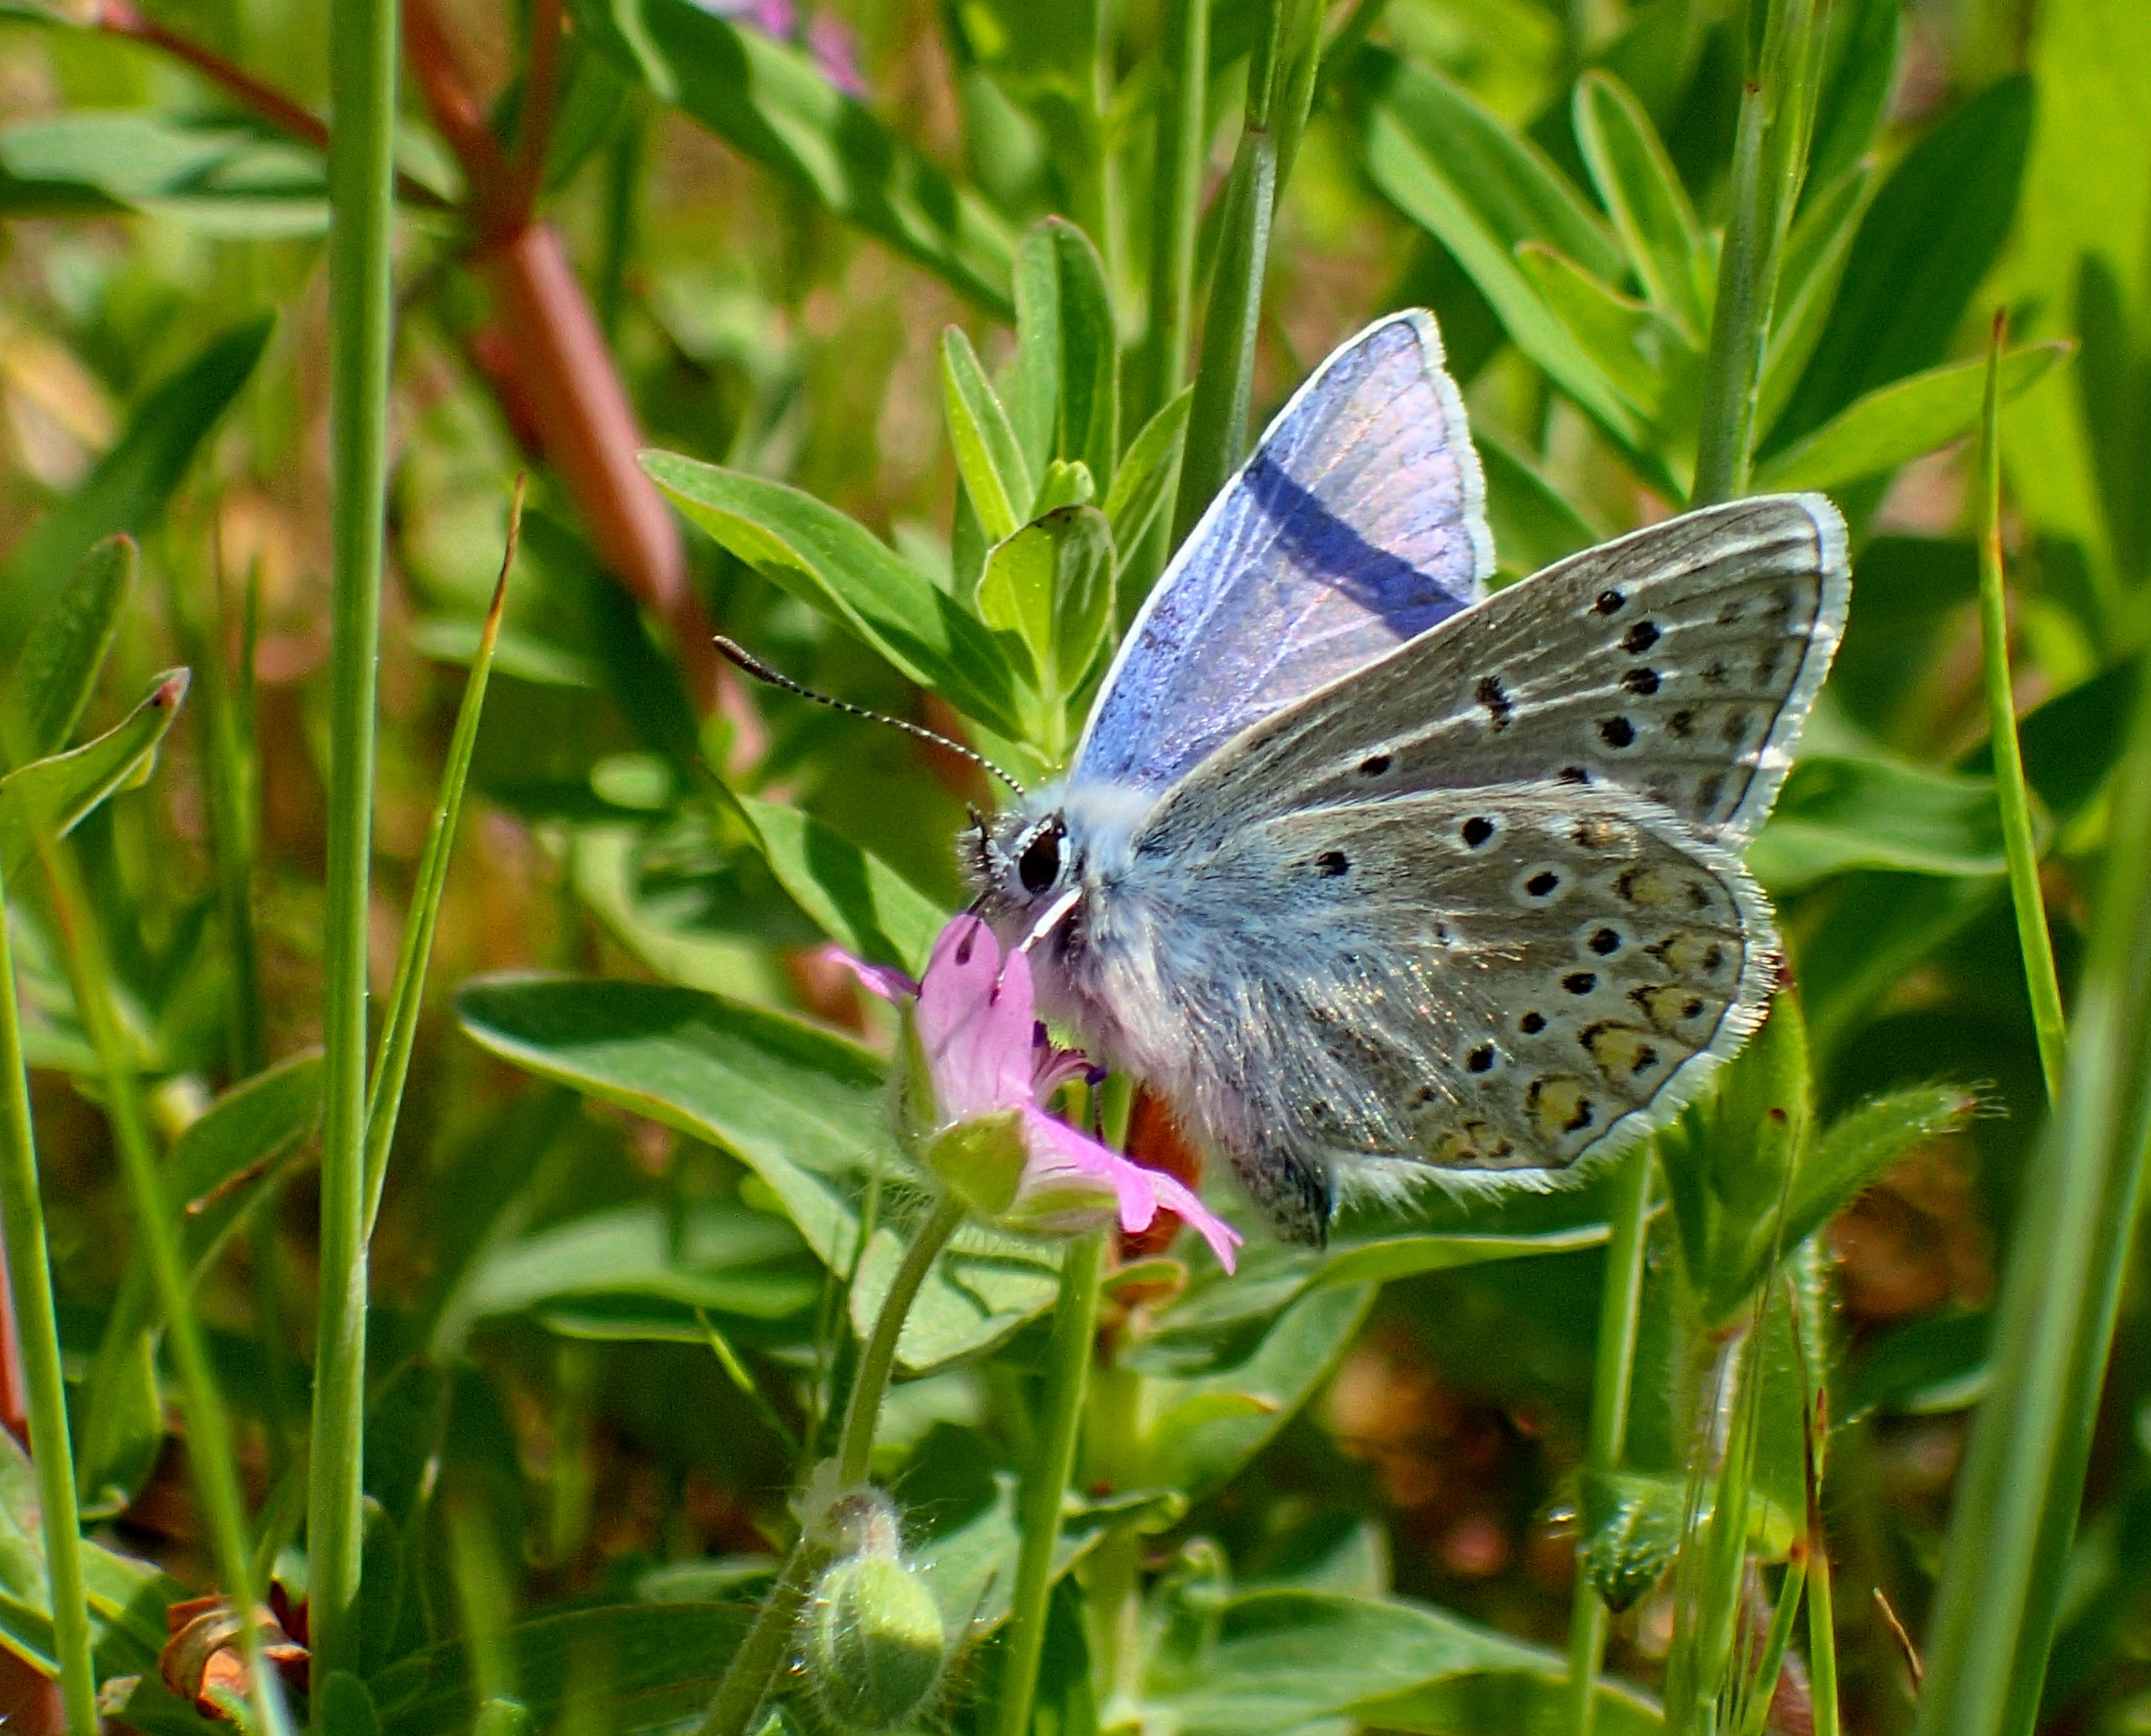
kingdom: Animalia
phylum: Arthropoda
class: Insecta
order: Lepidoptera
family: Lycaenidae
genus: Polyommatus
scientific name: Polyommatus icarus
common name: Almindelig blåfugl
